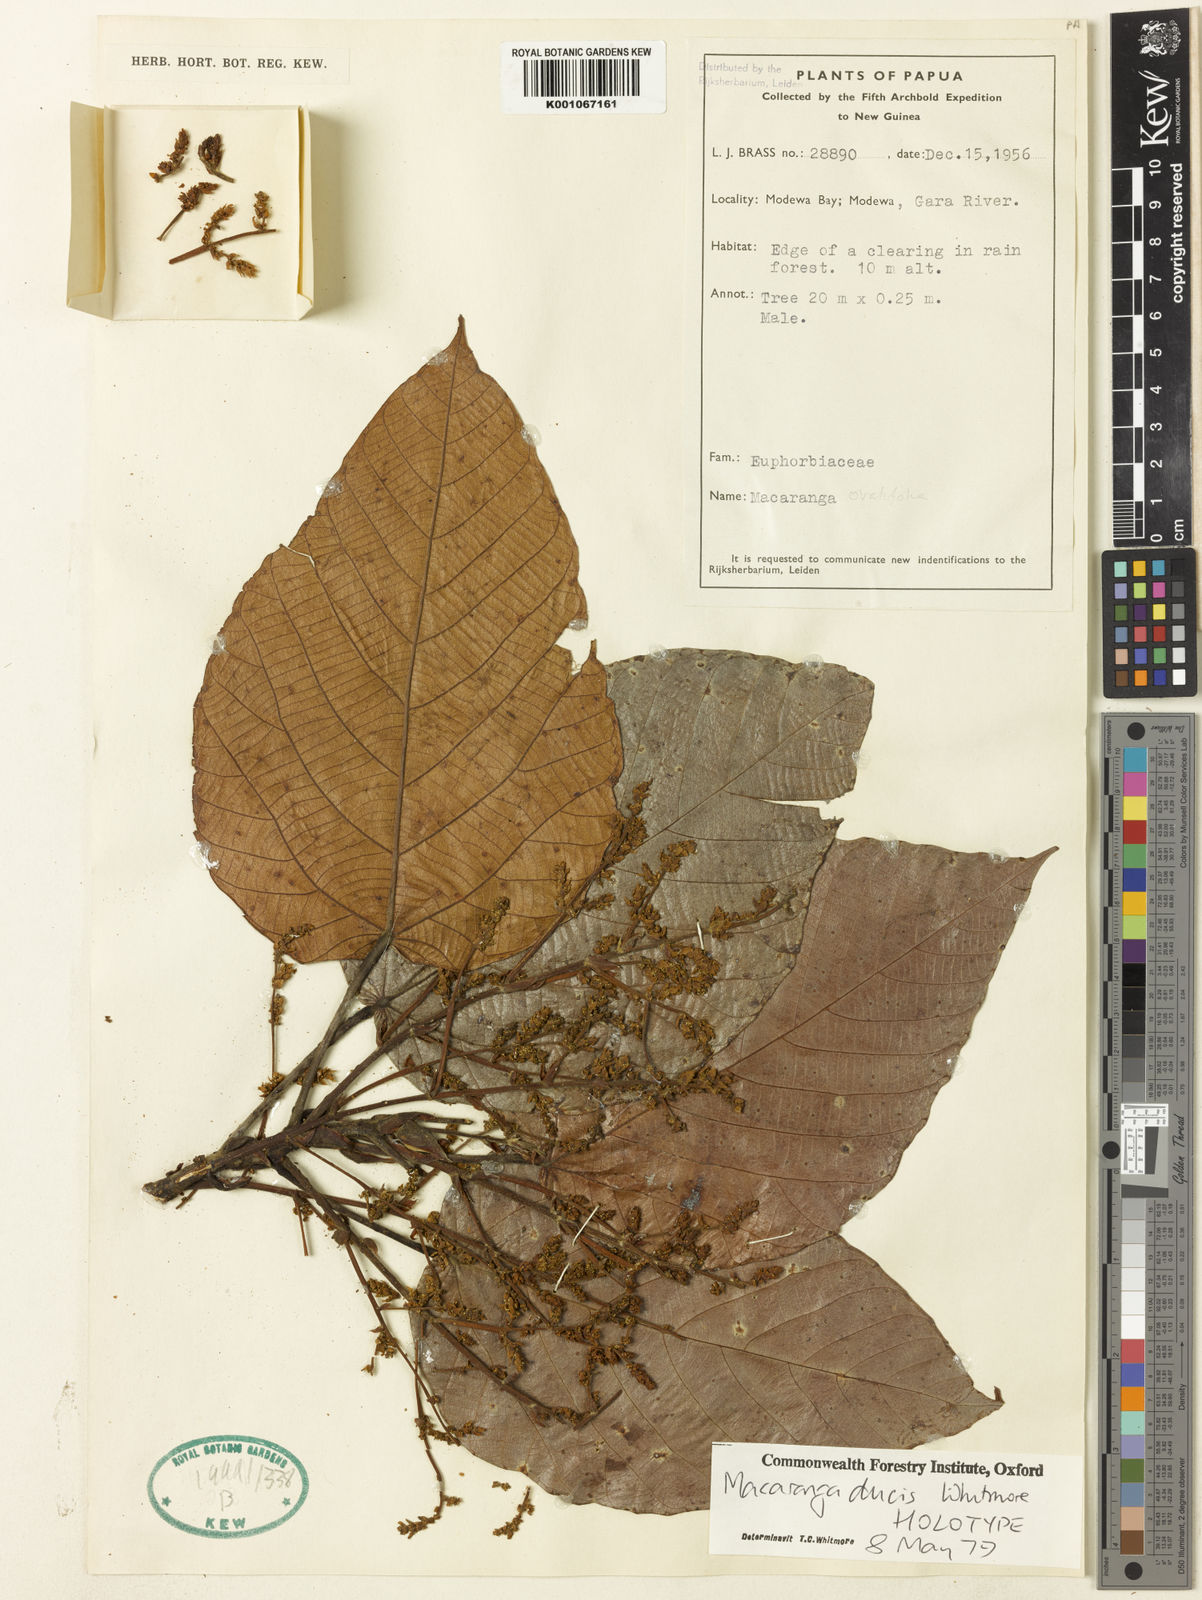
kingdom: Plantae
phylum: Tracheophyta
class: Magnoliopsida
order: Malpighiales
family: Euphorbiaceae
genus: Macaranga
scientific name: Macaranga ducis
